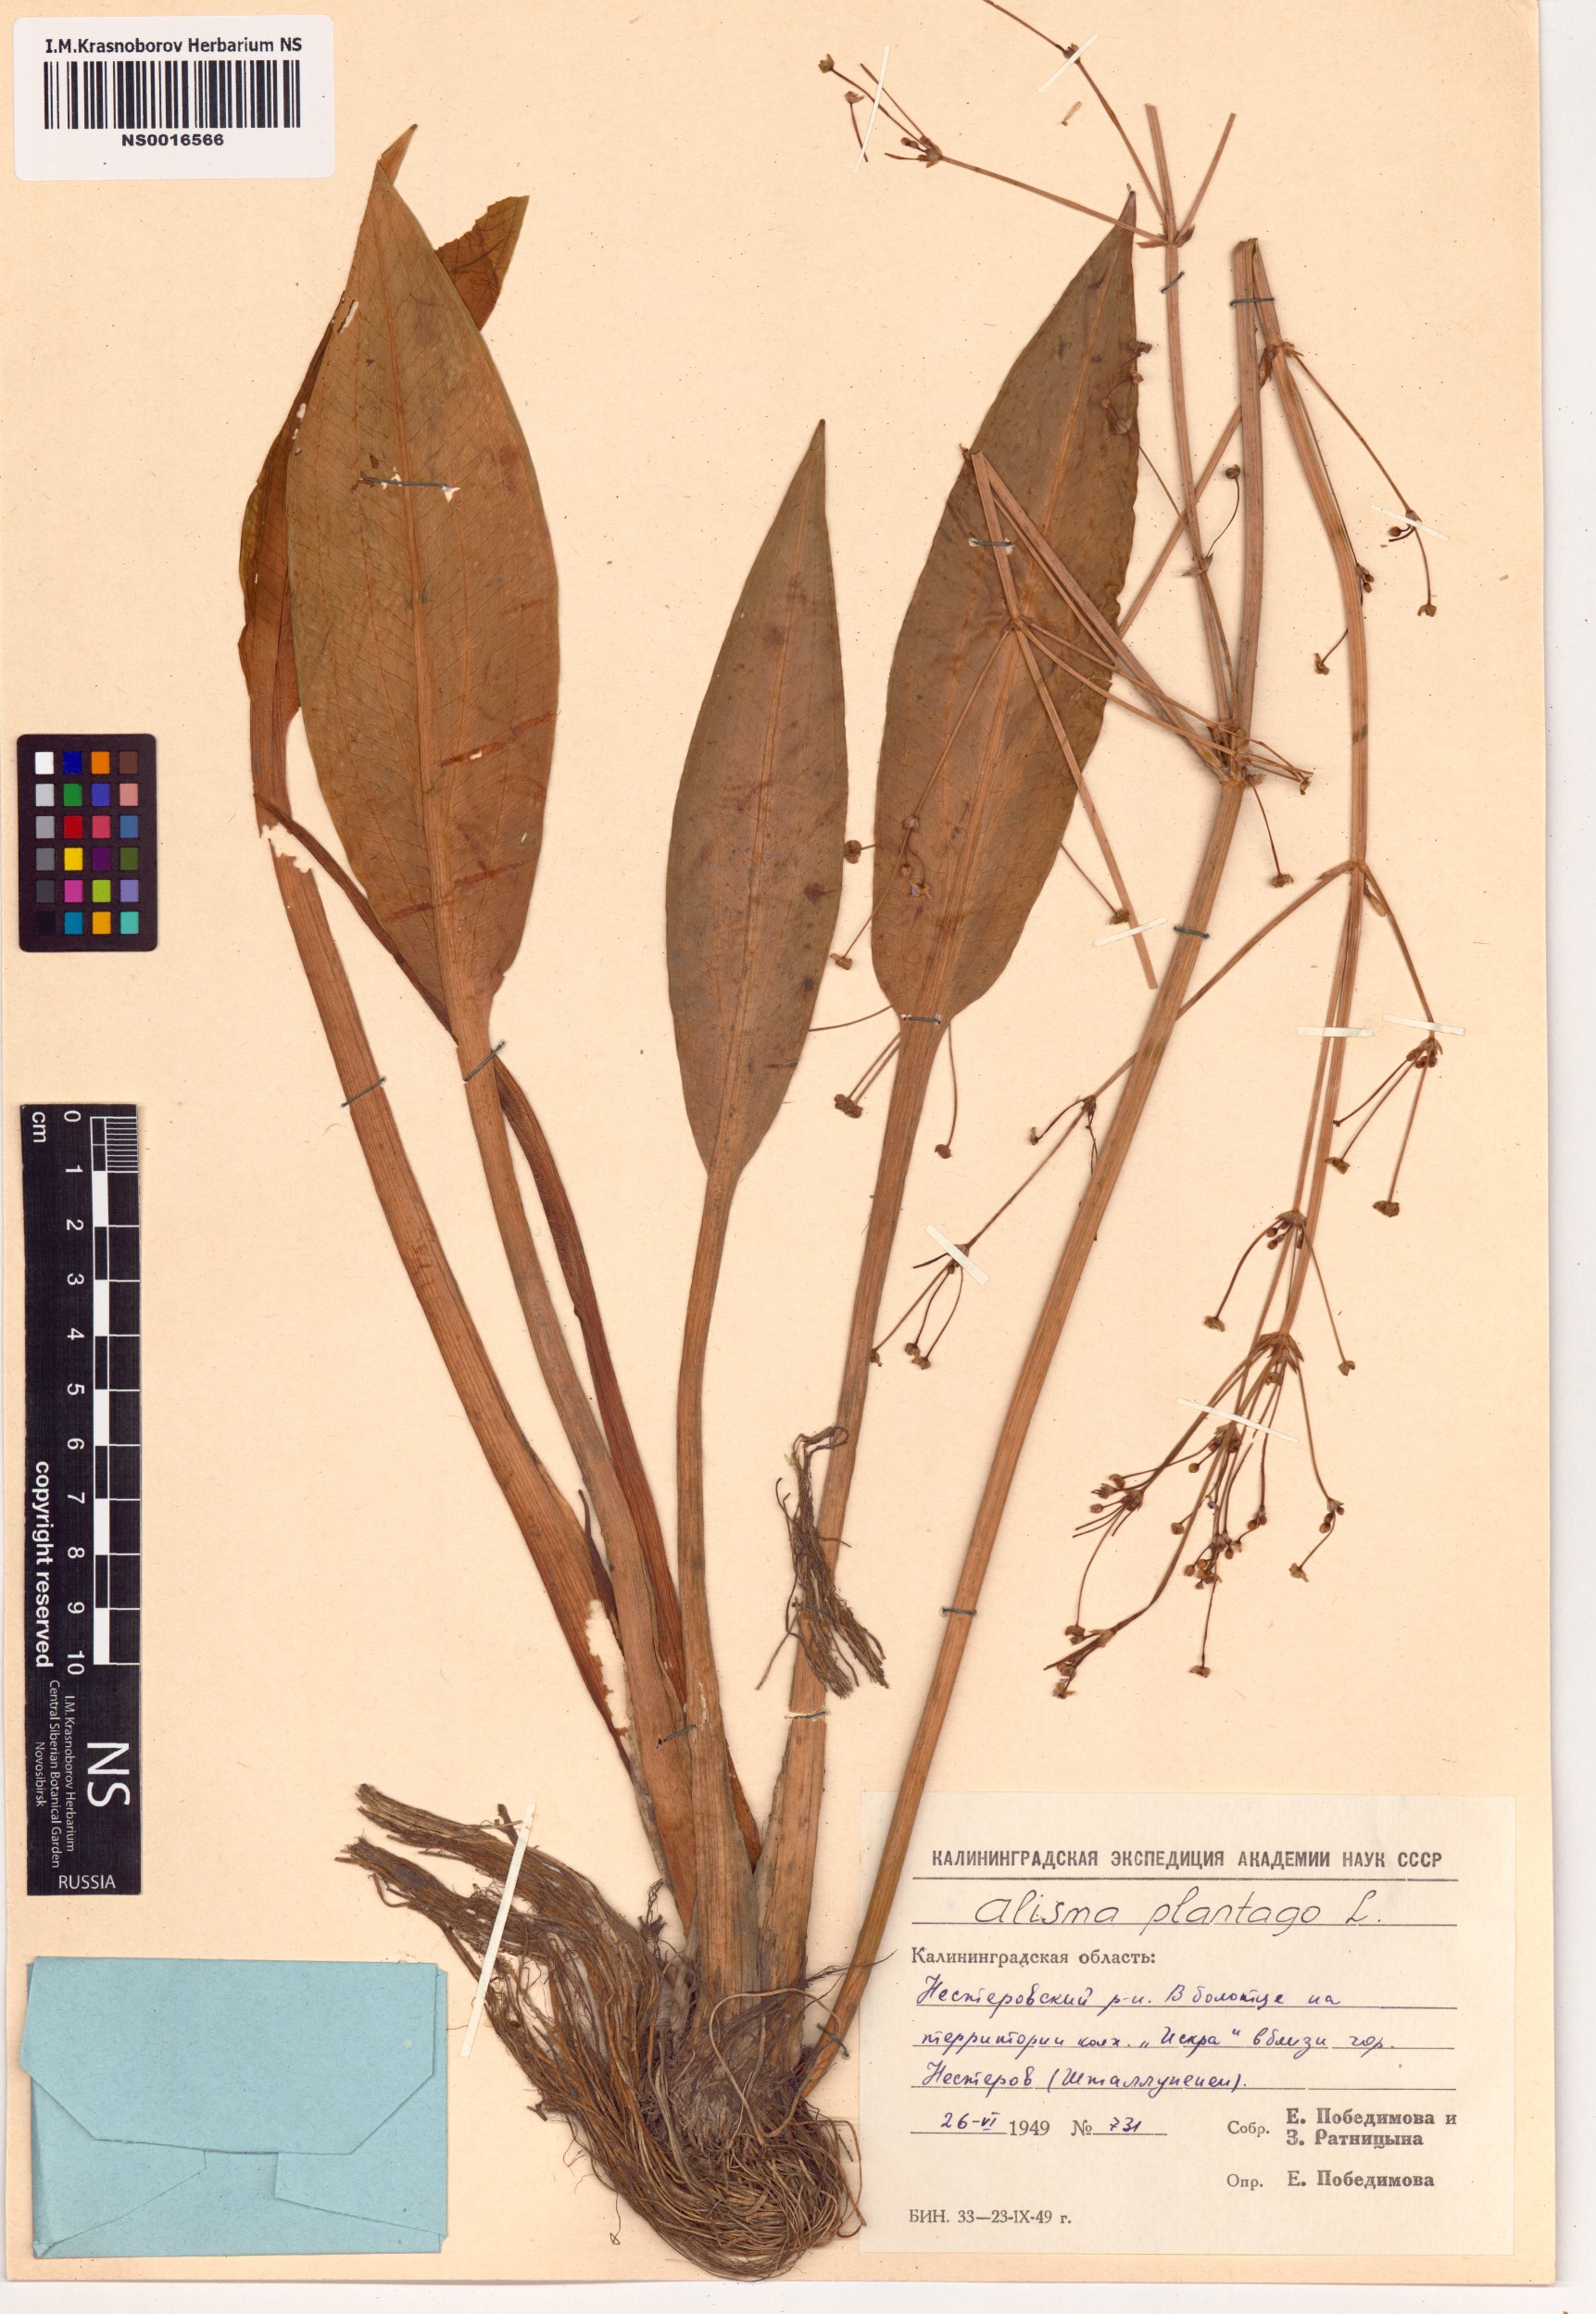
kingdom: Plantae
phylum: Tracheophyta
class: Liliopsida
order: Alismatales
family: Alismataceae
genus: Alisma
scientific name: Alisma plantago-aquatica
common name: Water-plantain
